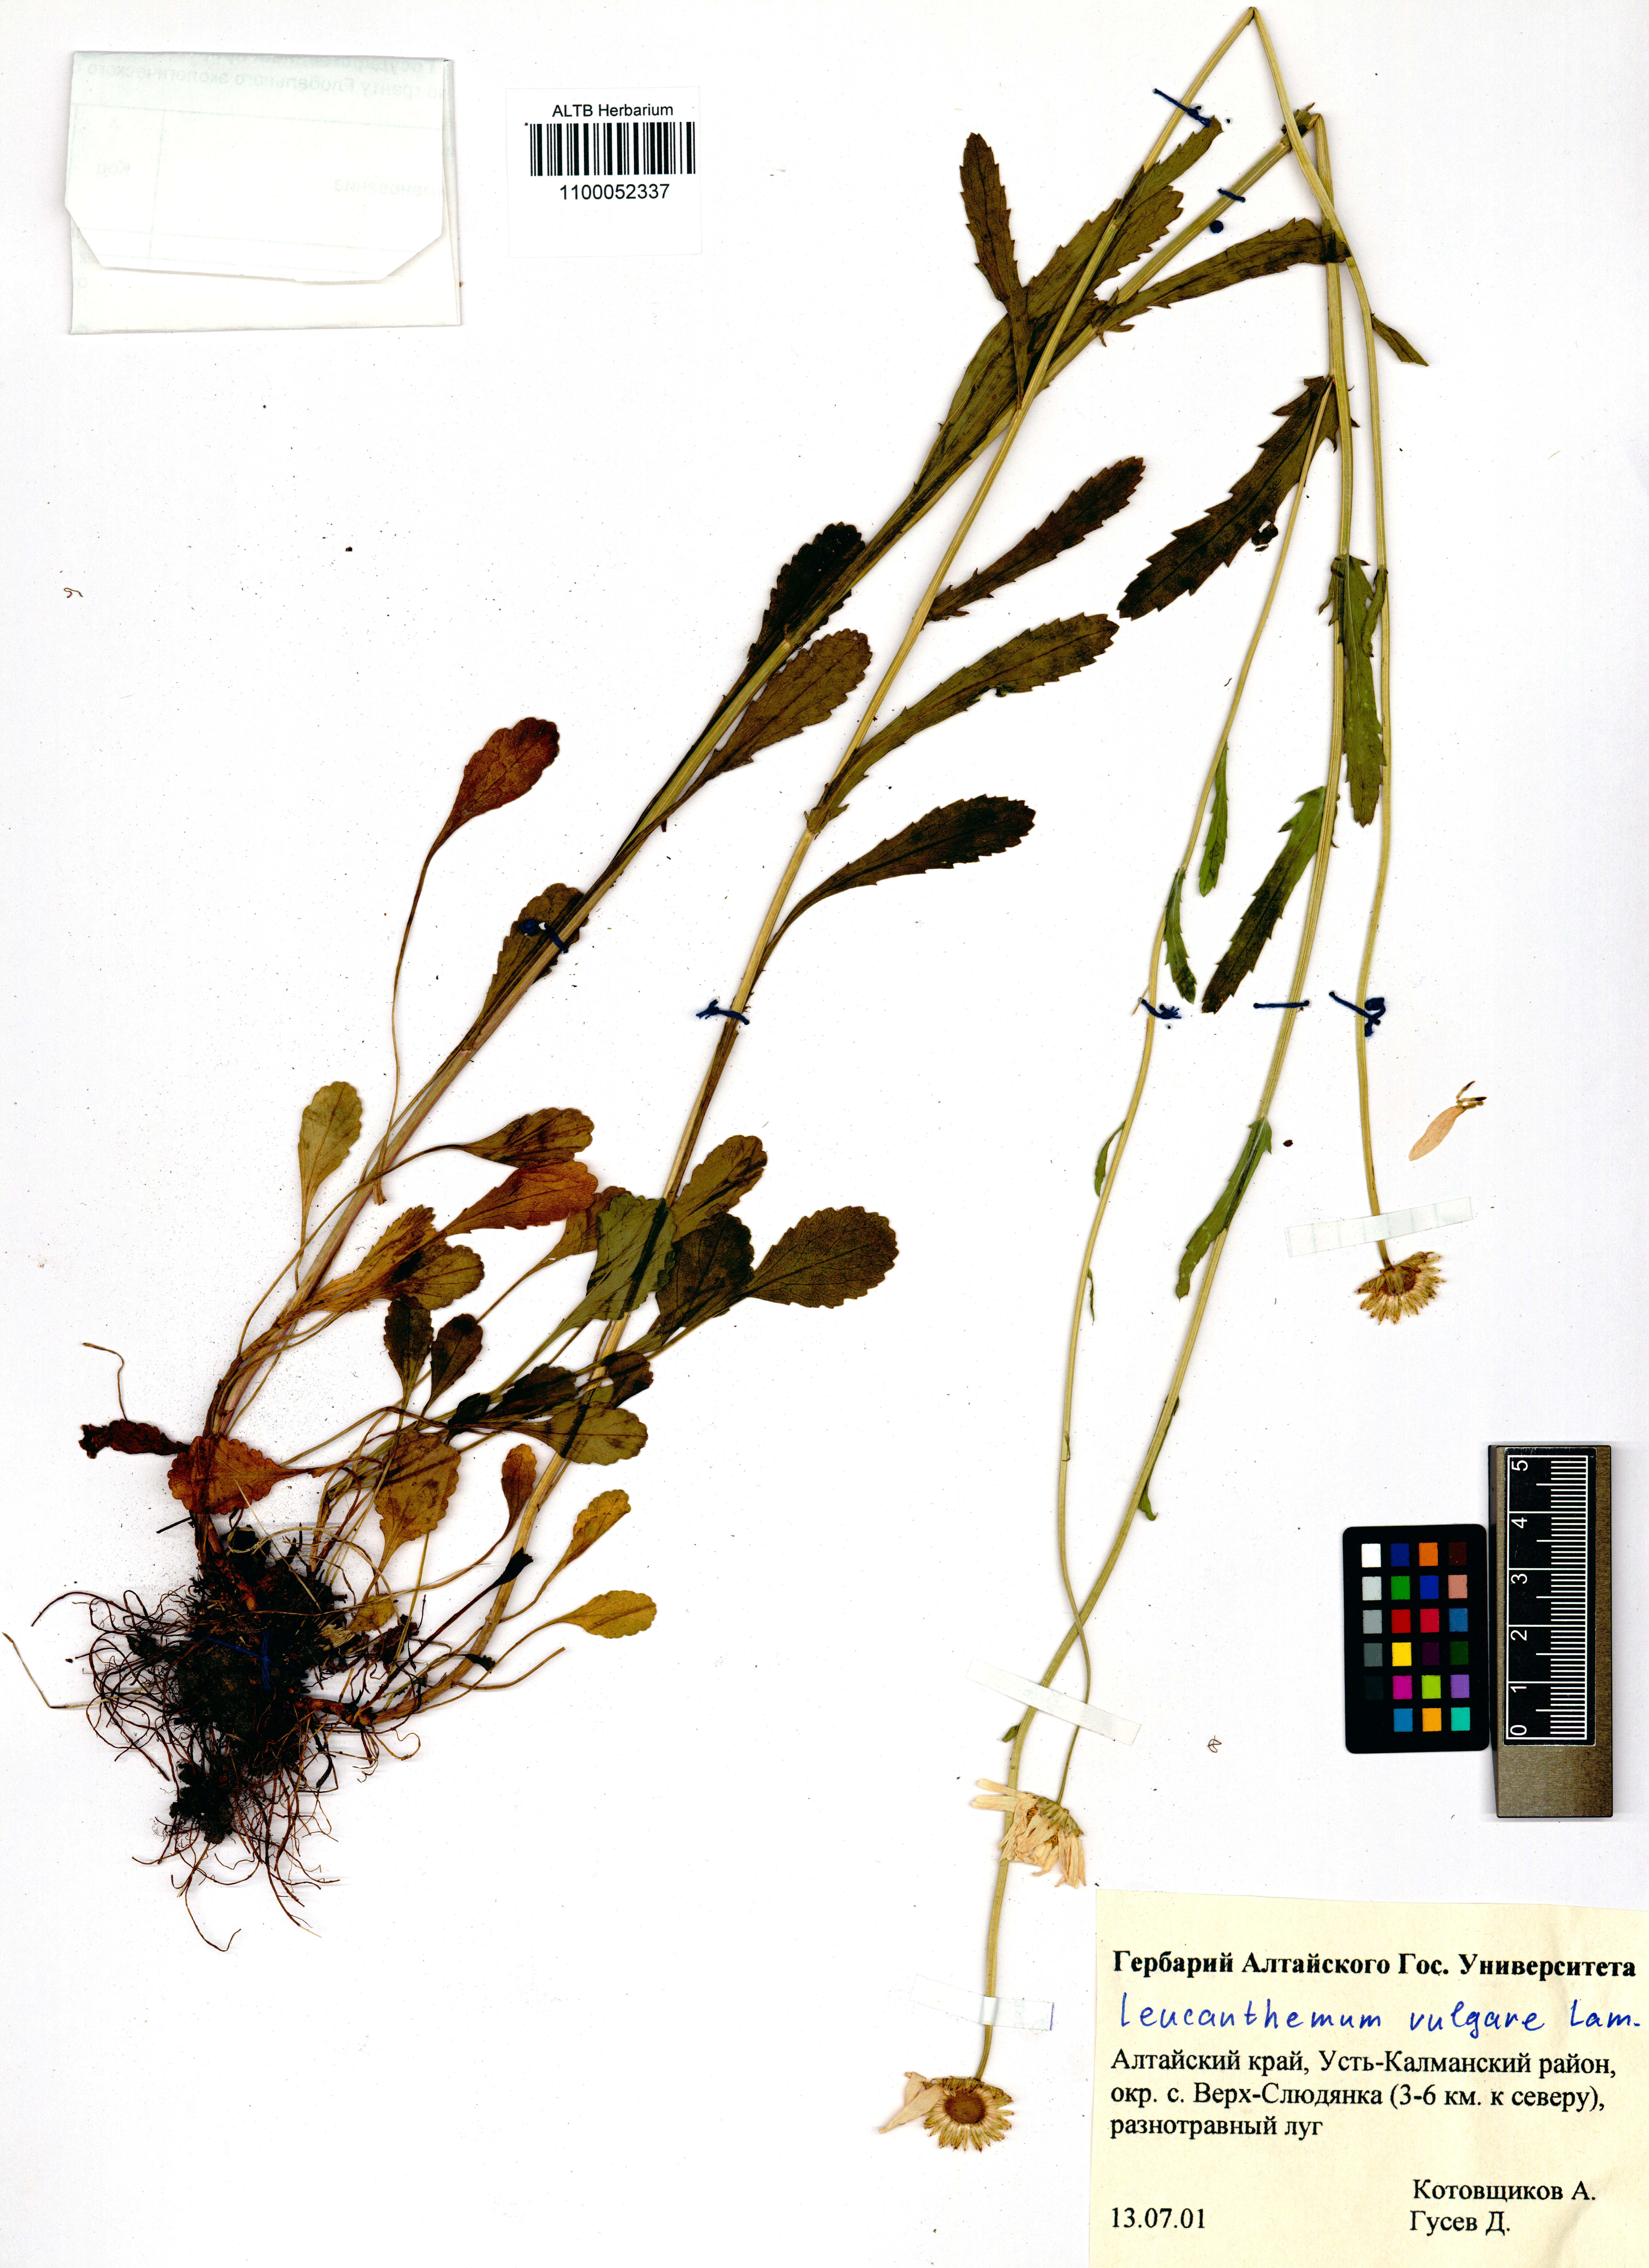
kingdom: Plantae
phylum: Tracheophyta
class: Magnoliopsida
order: Asterales
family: Asteraceae
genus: Leucanthemum
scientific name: Leucanthemum vulgare
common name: Oxeye daisy
